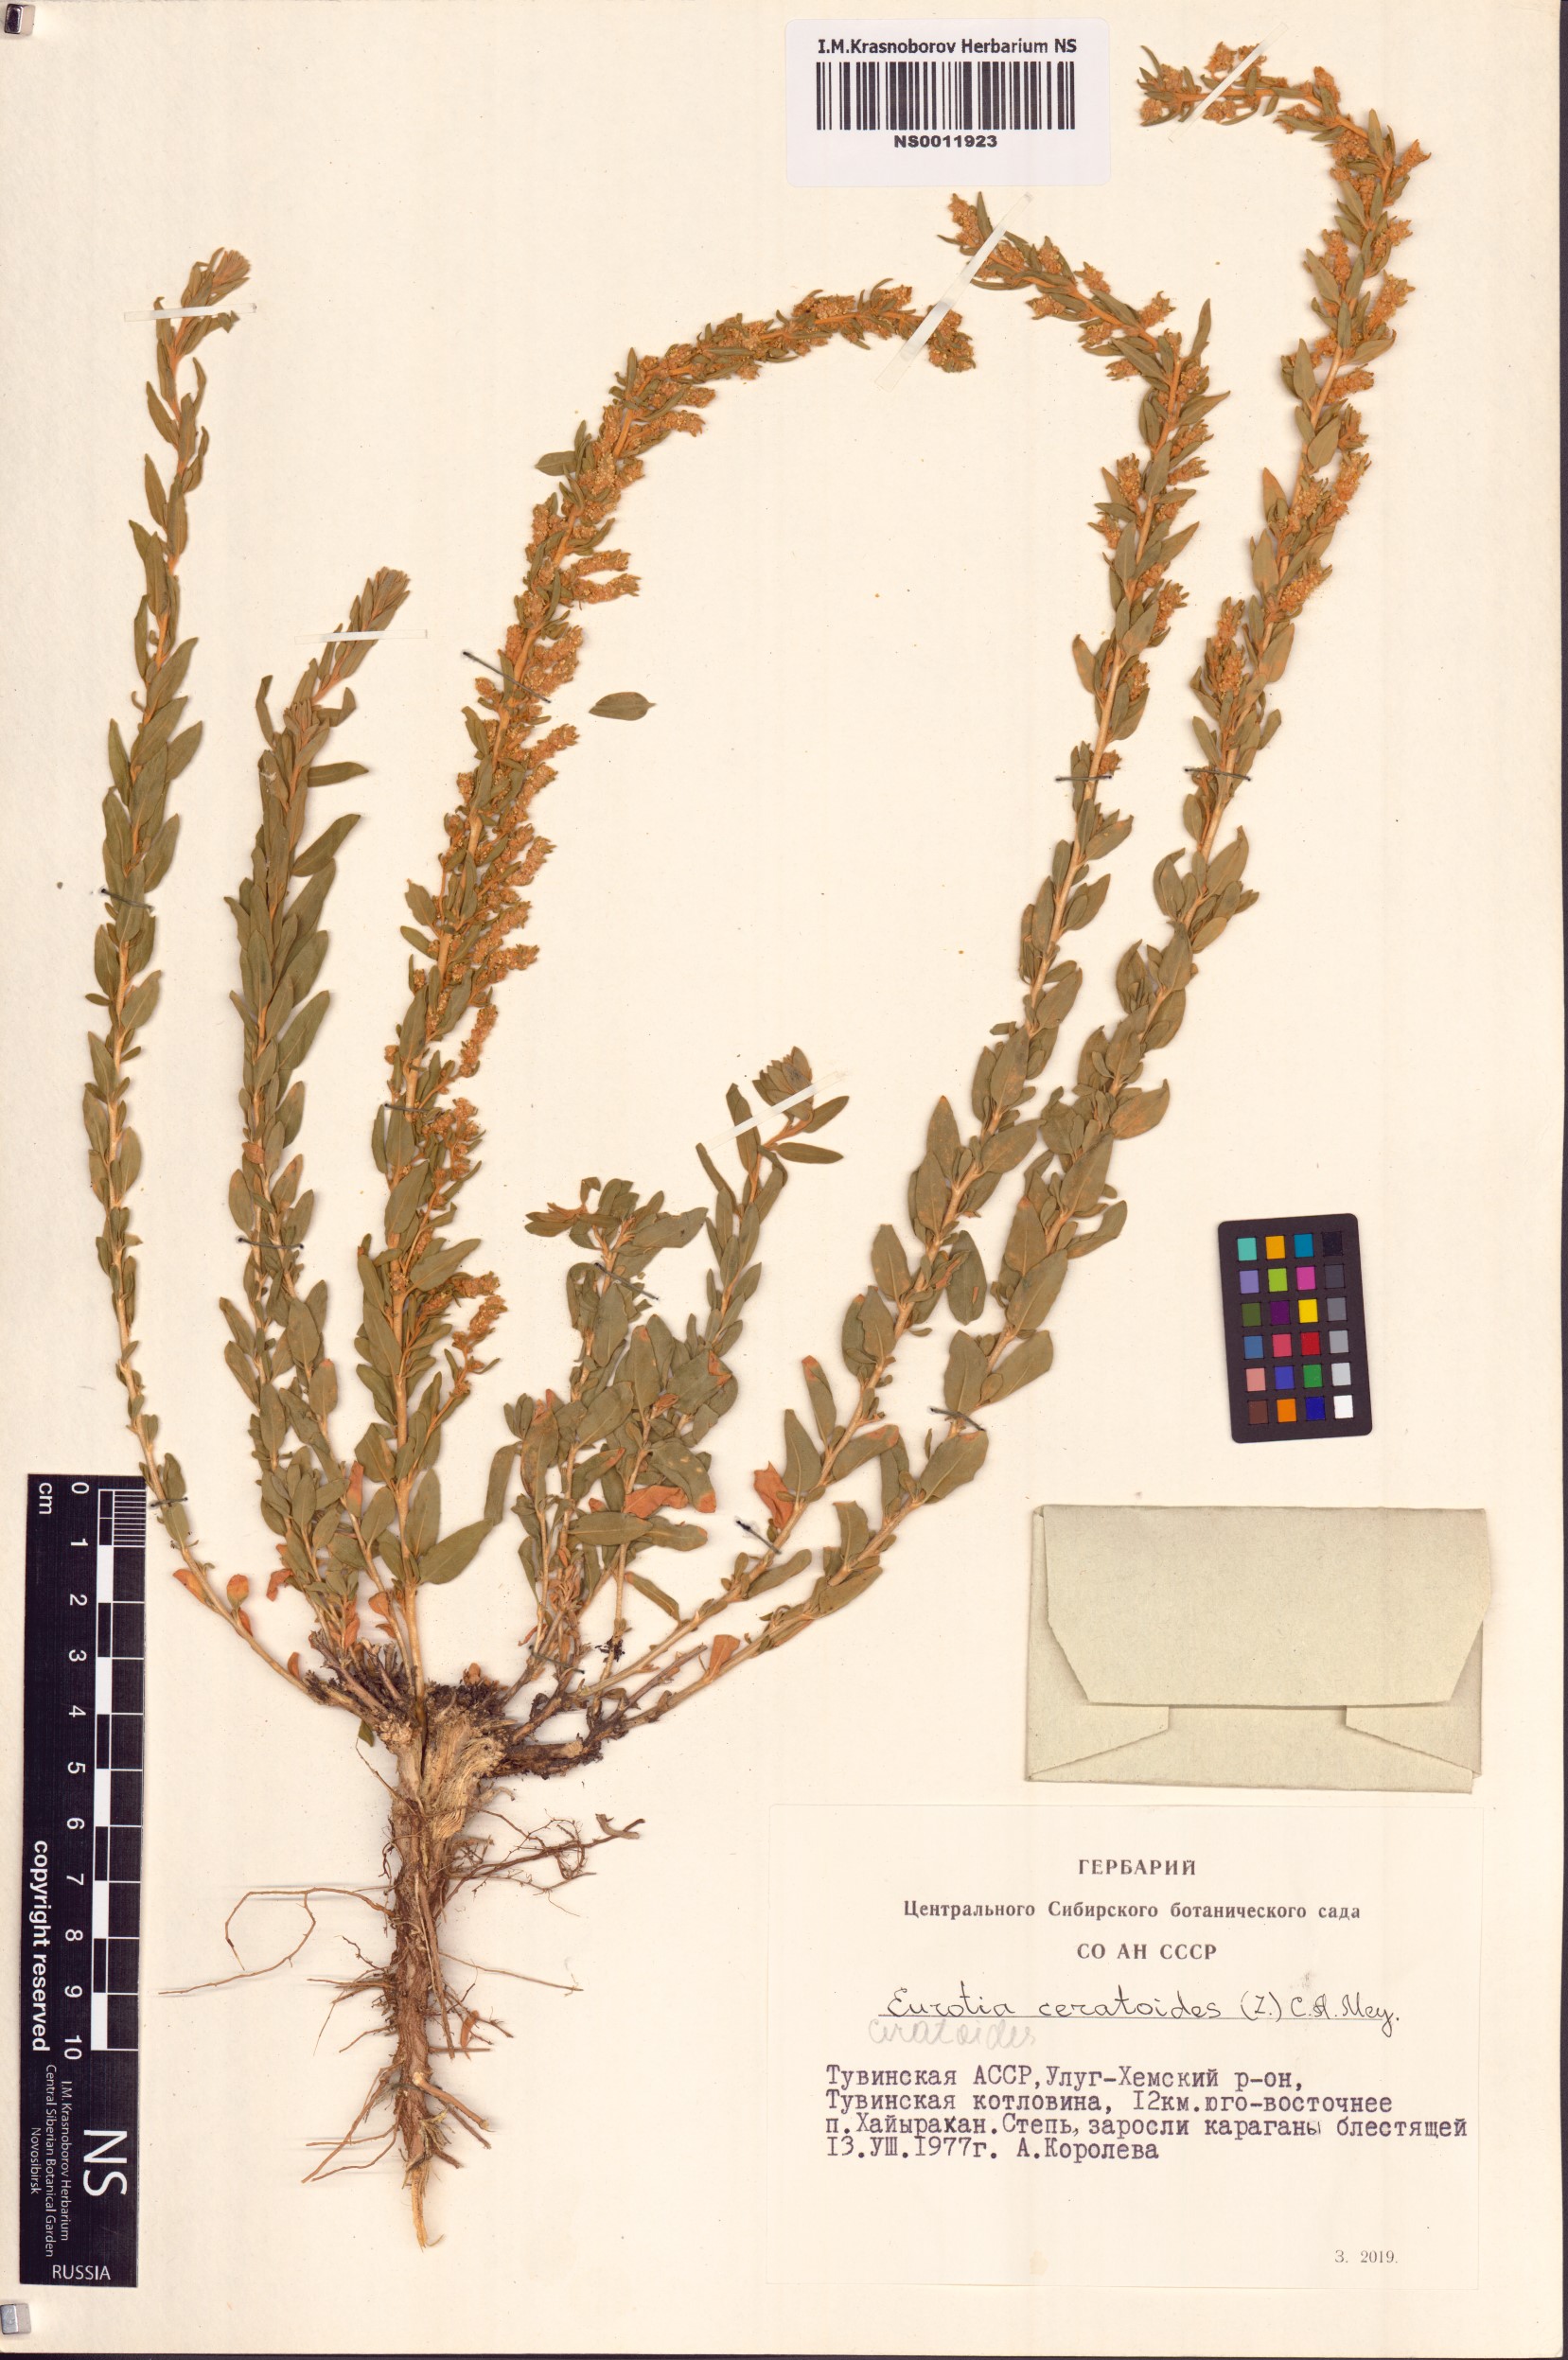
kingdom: Plantae
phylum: Tracheophyta
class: Magnoliopsida
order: Caryophyllales
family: Amaranthaceae
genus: Krascheninnikovia
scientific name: Krascheninnikovia ceratoides
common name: Pamirian winterfat
